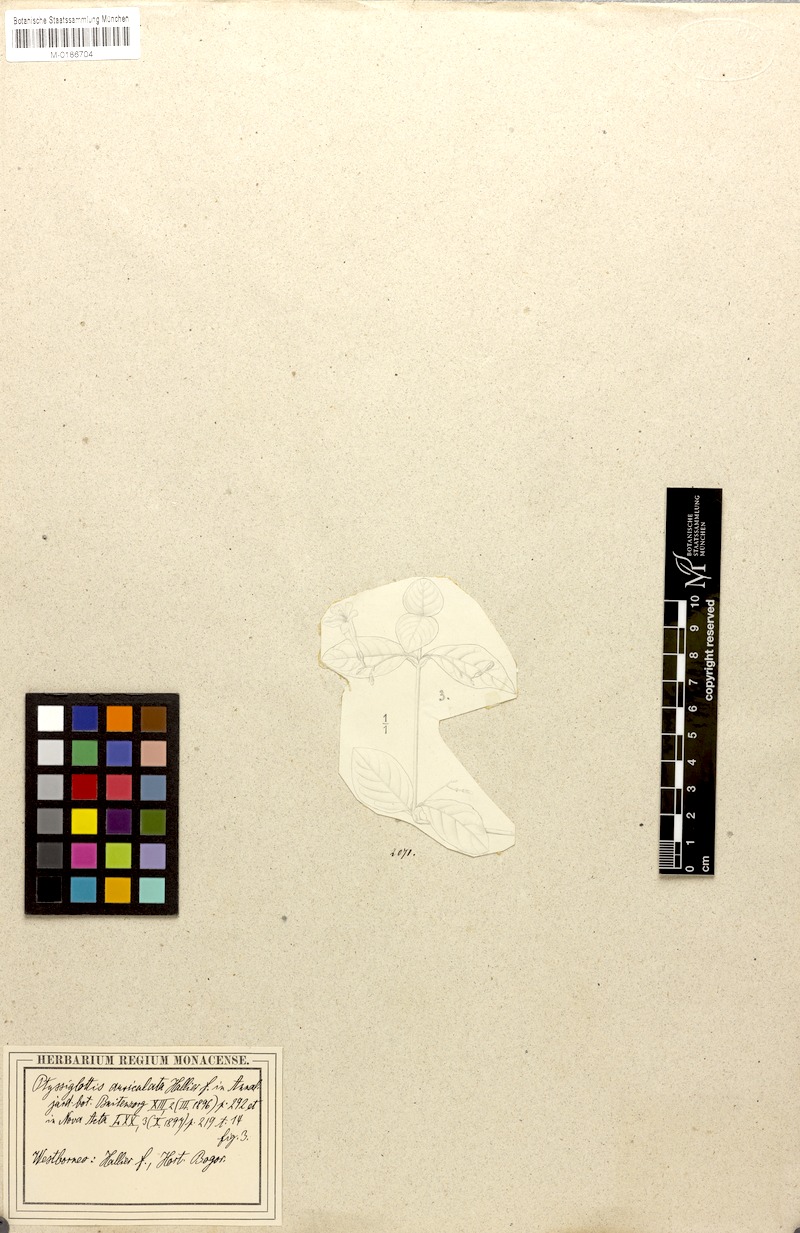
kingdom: Plantae
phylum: Tracheophyta
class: Magnoliopsida
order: Lamiales
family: Acanthaceae
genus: Ptyssiglottis
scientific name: Ptyssiglottis auriculata
